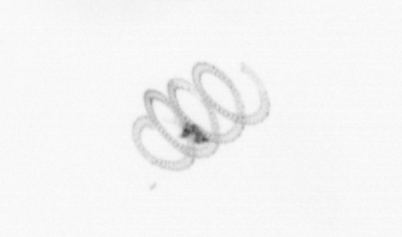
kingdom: Chromista
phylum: Ochrophyta
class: Bacillariophyceae
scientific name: Bacillariophyceae
